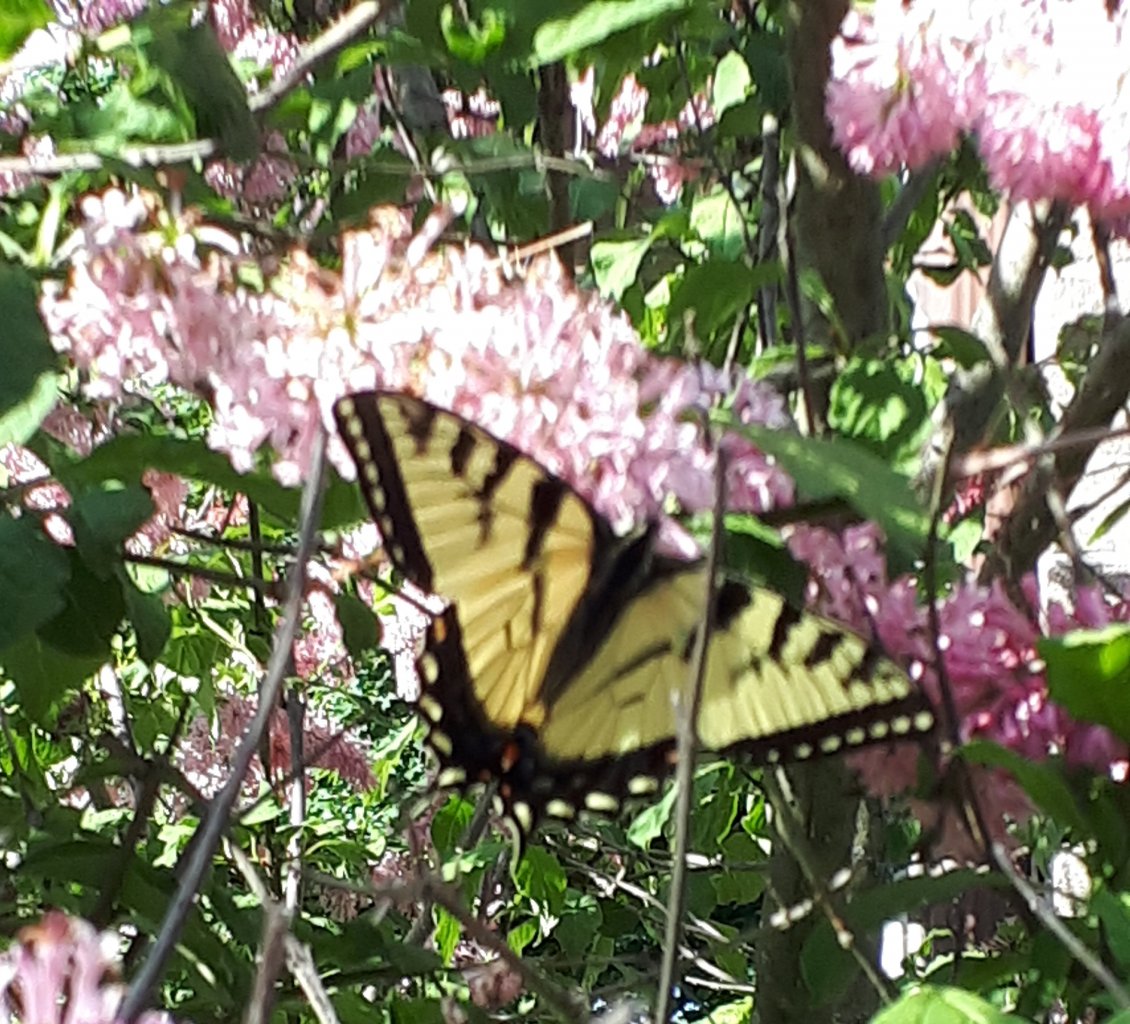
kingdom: Animalia
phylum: Arthropoda
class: Insecta
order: Lepidoptera
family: Papilionidae
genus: Pterourus
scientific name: Pterourus glaucus
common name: Eastern Tiger Swallowtail
